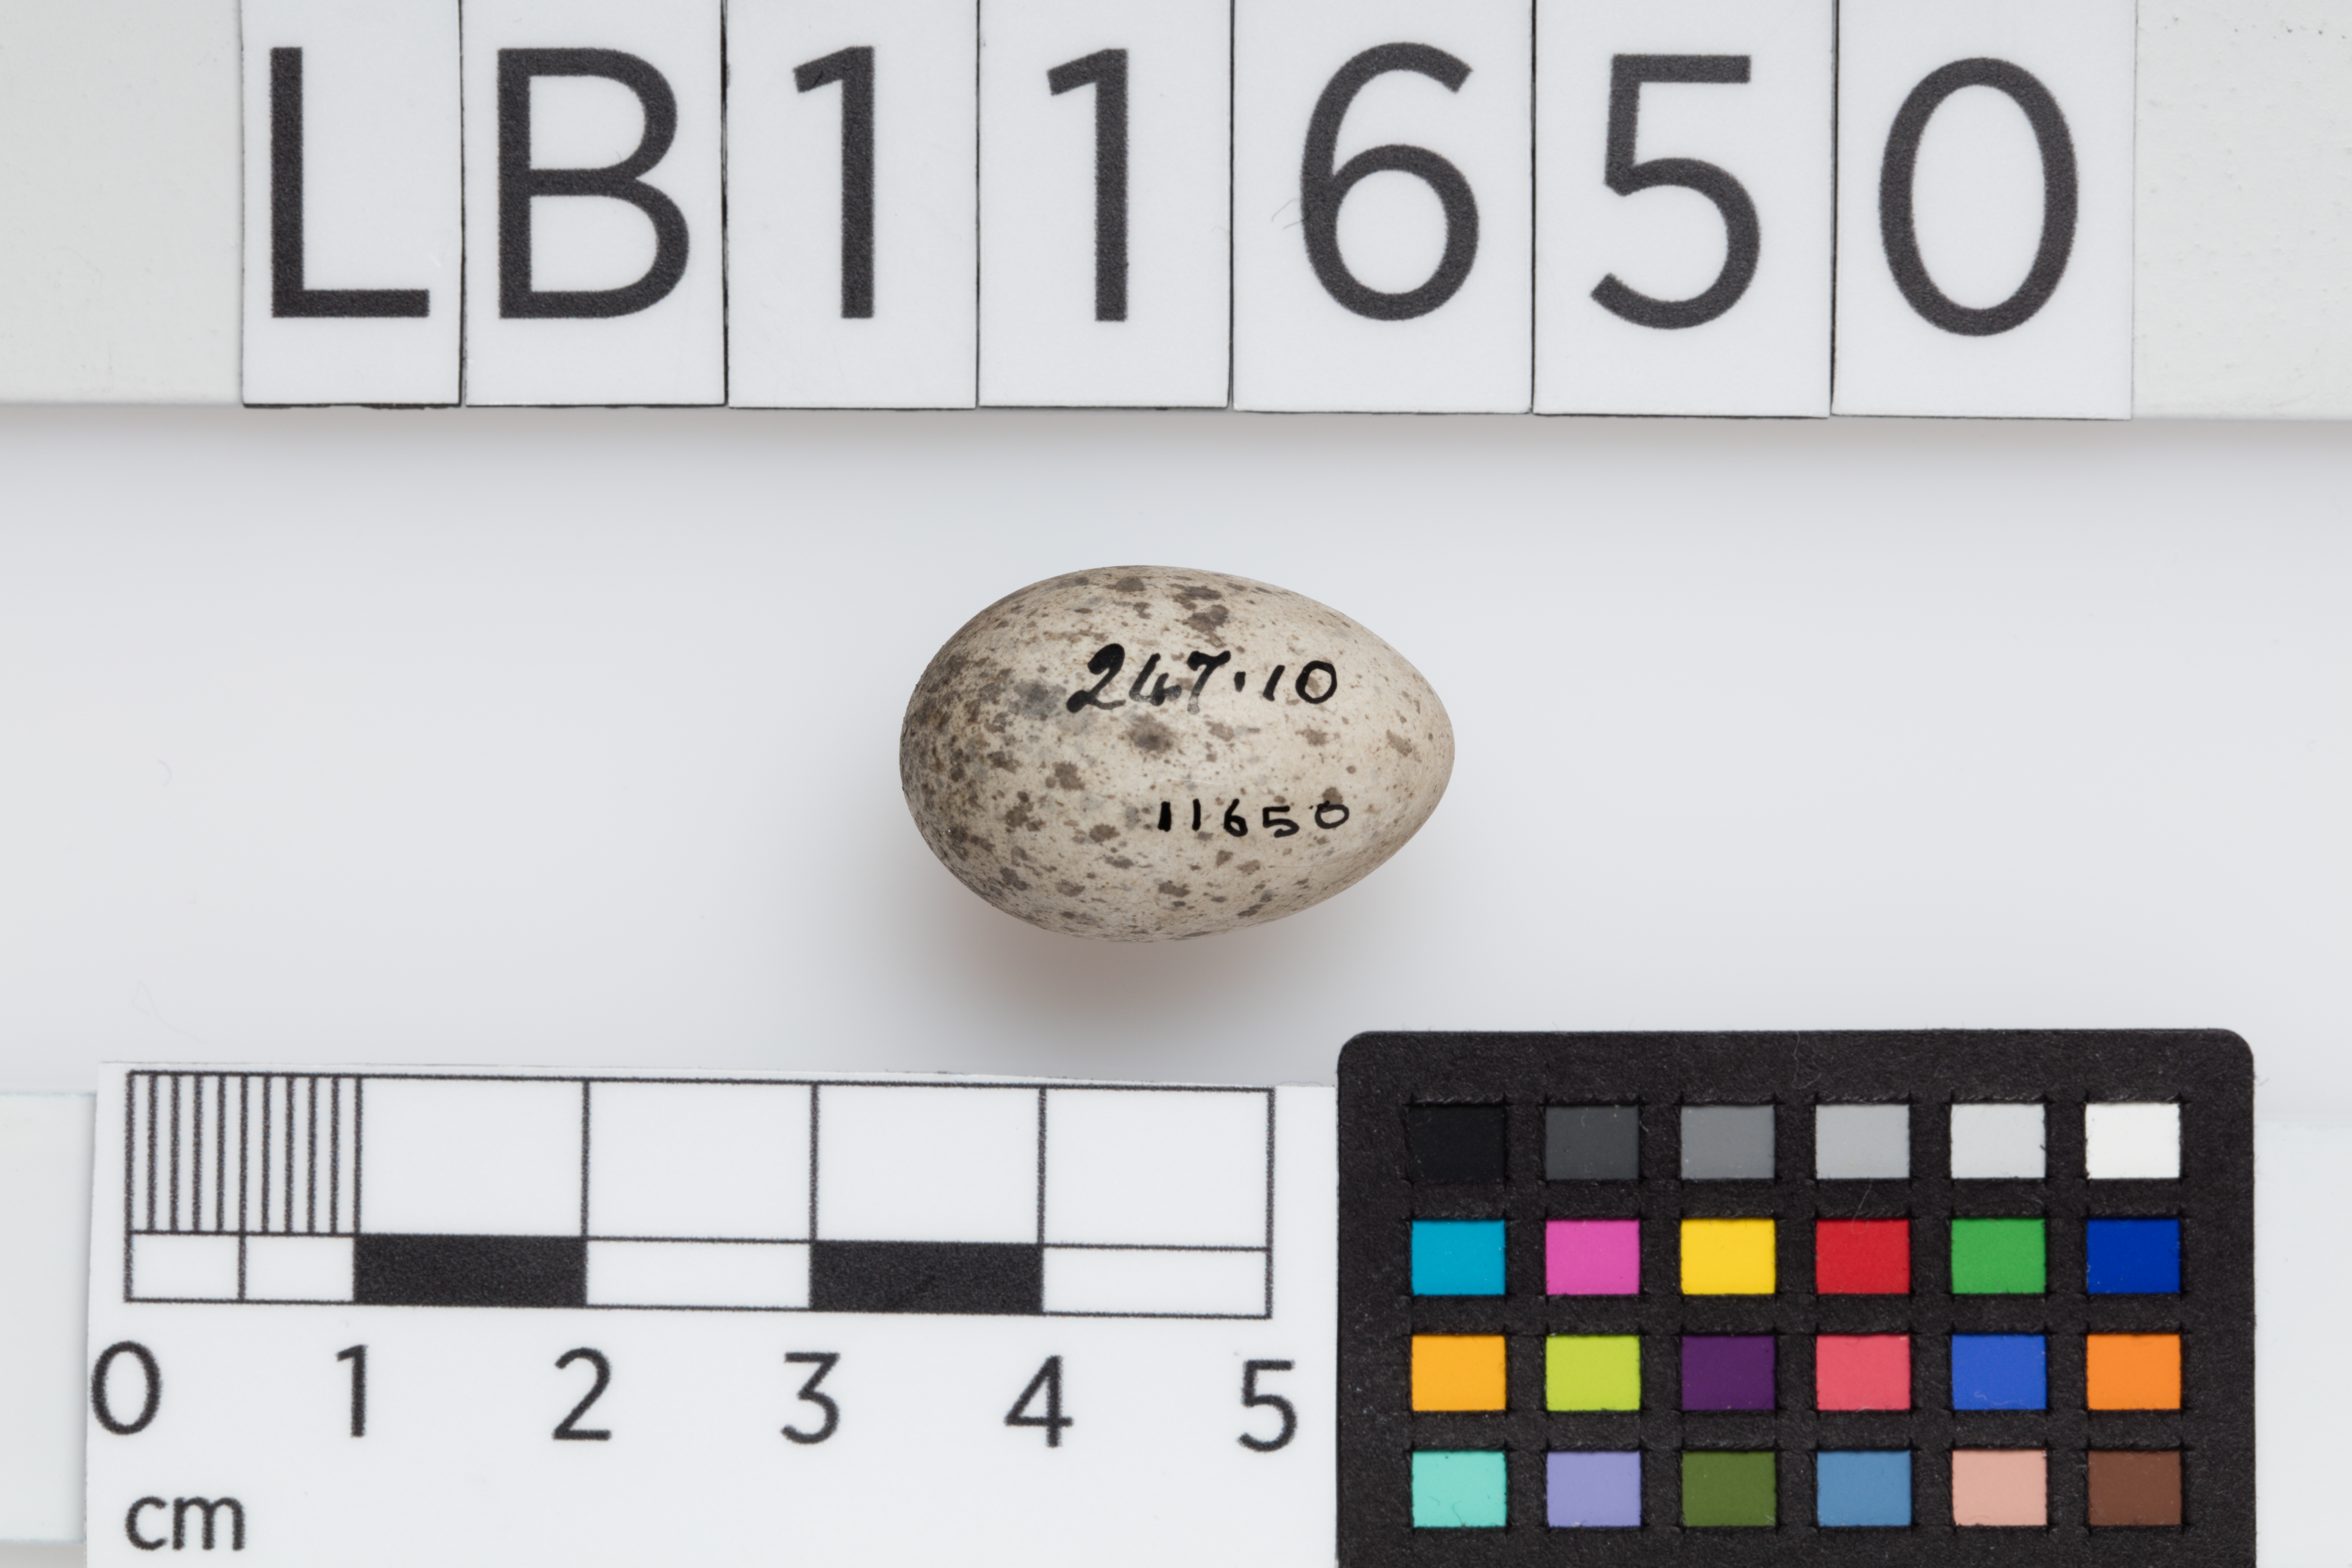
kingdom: Animalia
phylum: Chordata
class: Aves
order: Passeriformes
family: Passeridae
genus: Passer
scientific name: Passer domesticus
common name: House sparrow
